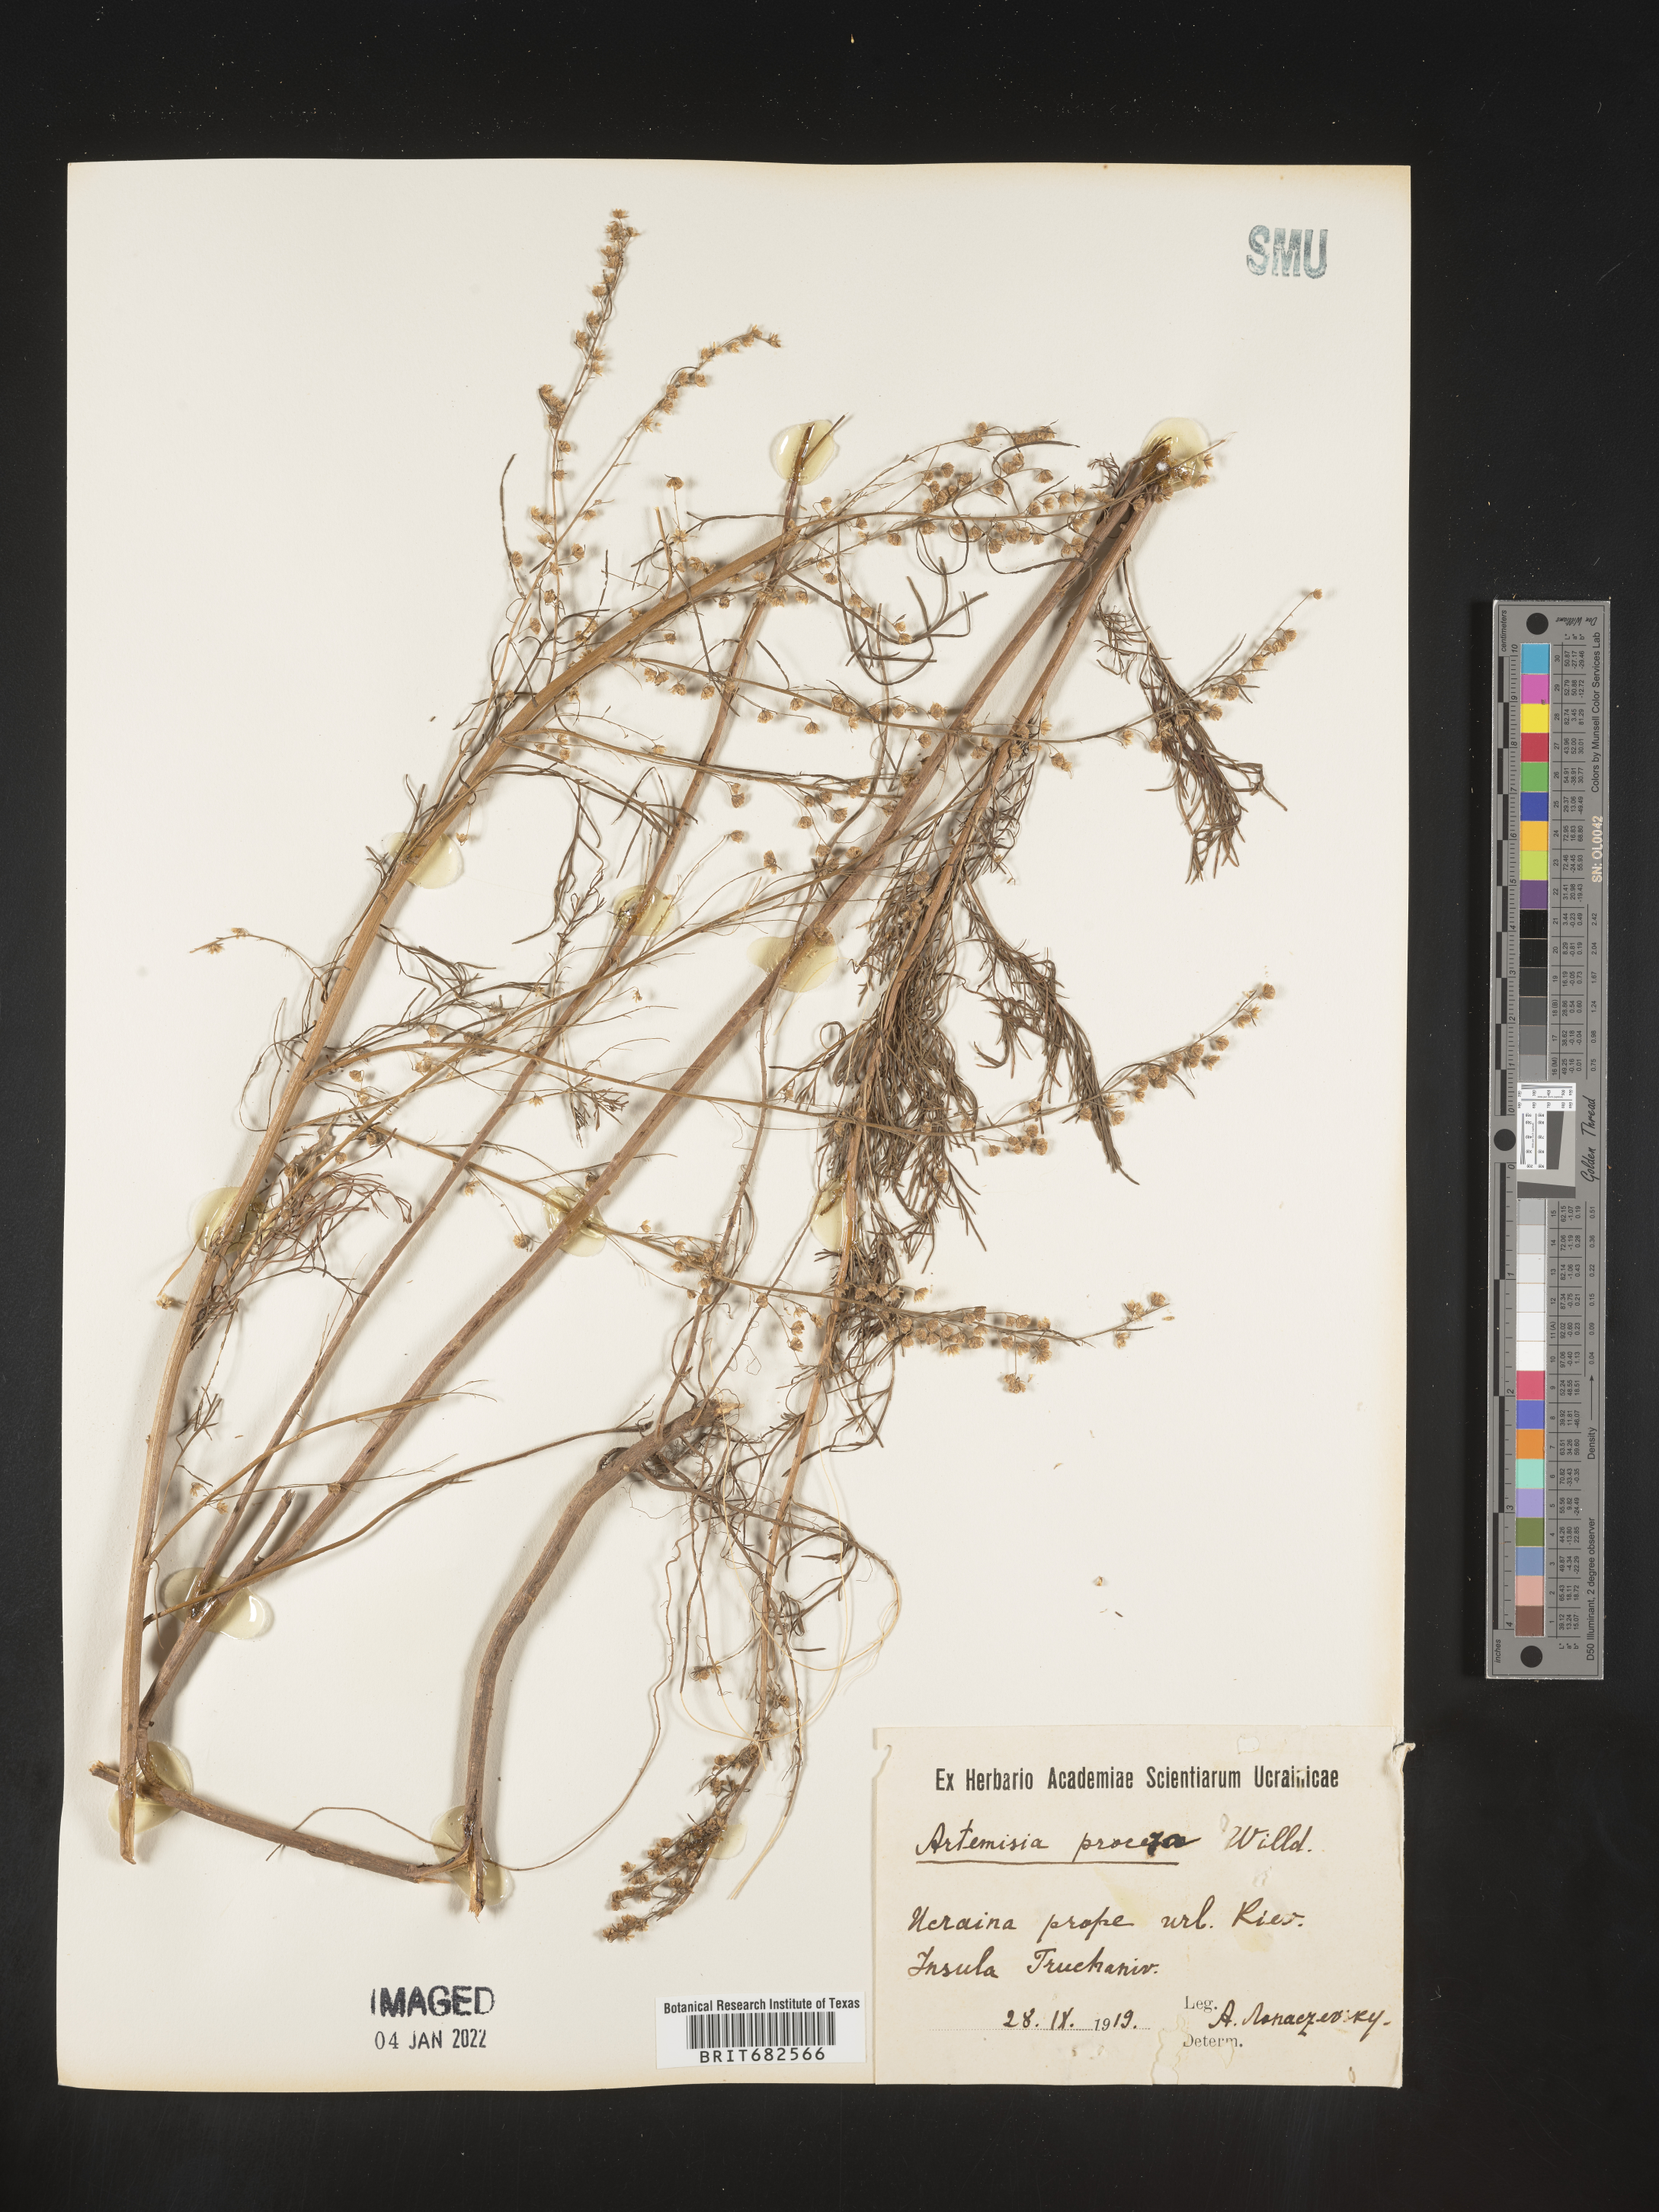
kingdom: Plantae
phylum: Tracheophyta
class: Magnoliopsida
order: Asterales
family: Asteraceae
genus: Artemisia
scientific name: Artemisia
